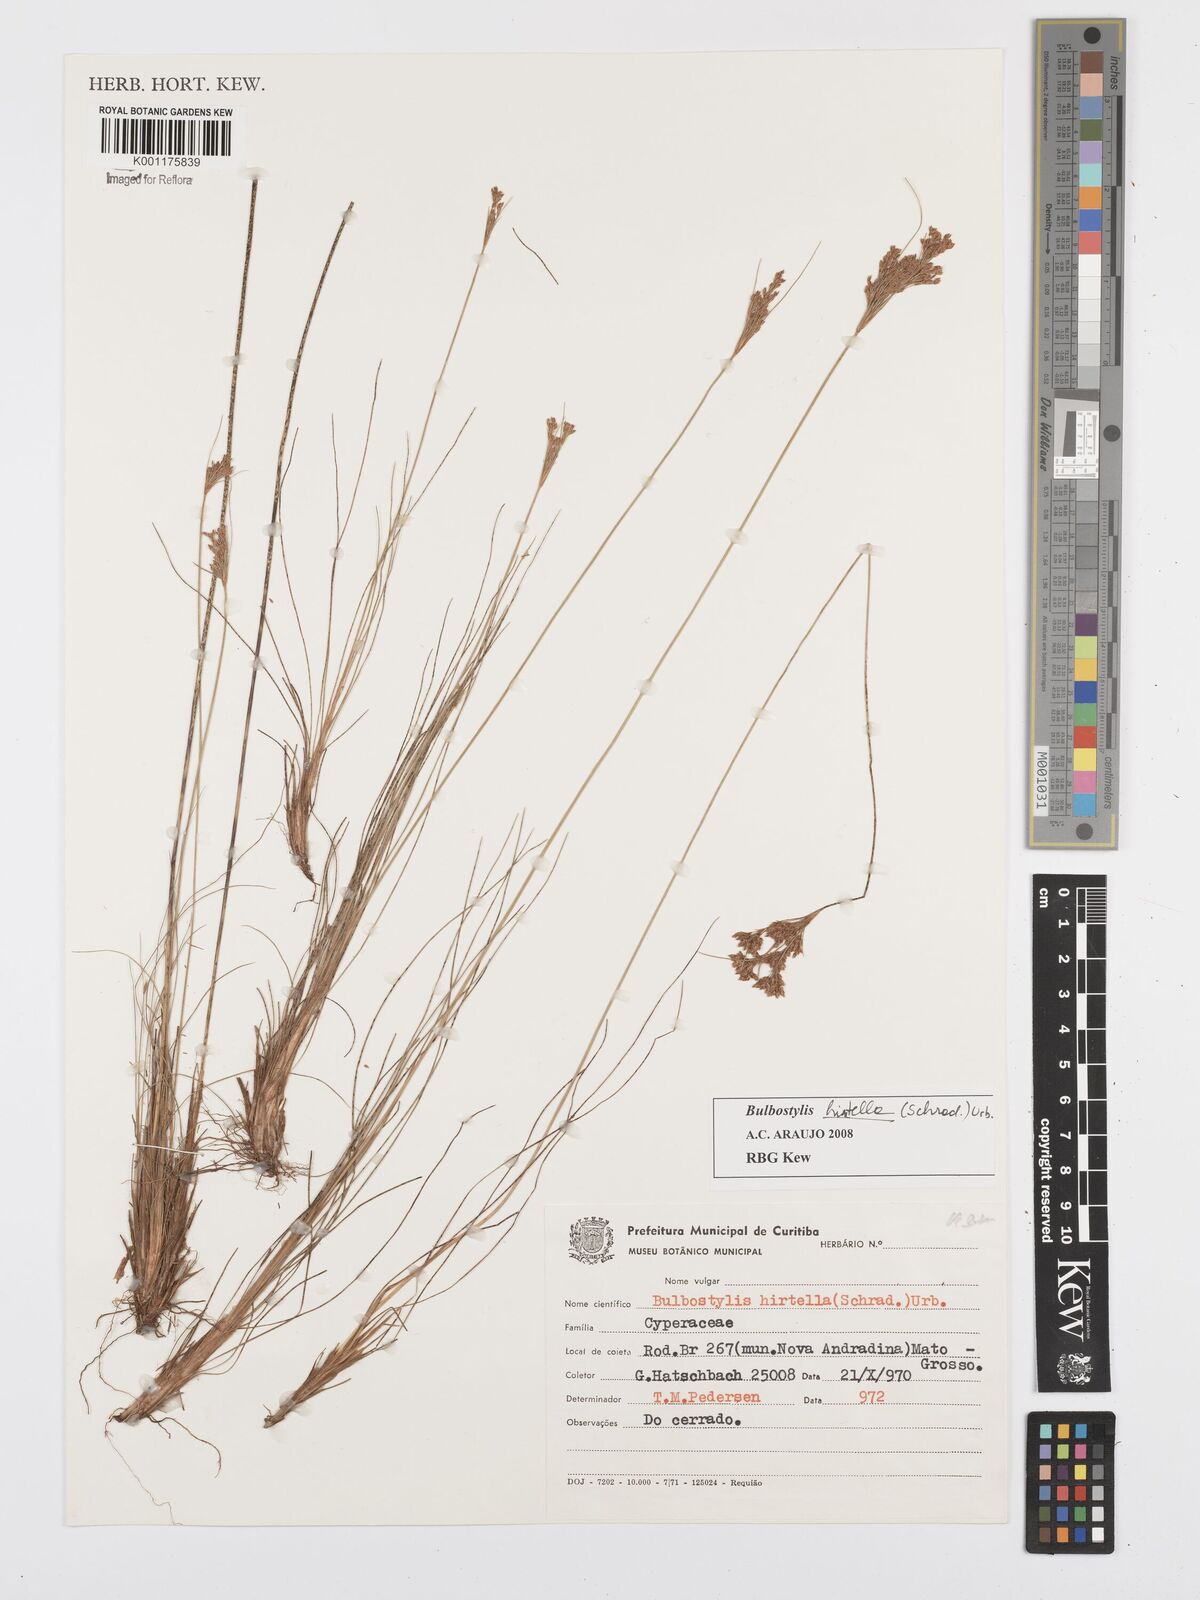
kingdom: Plantae
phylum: Tracheophyta
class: Liliopsida
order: Poales
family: Cyperaceae
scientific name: Cyperaceae
